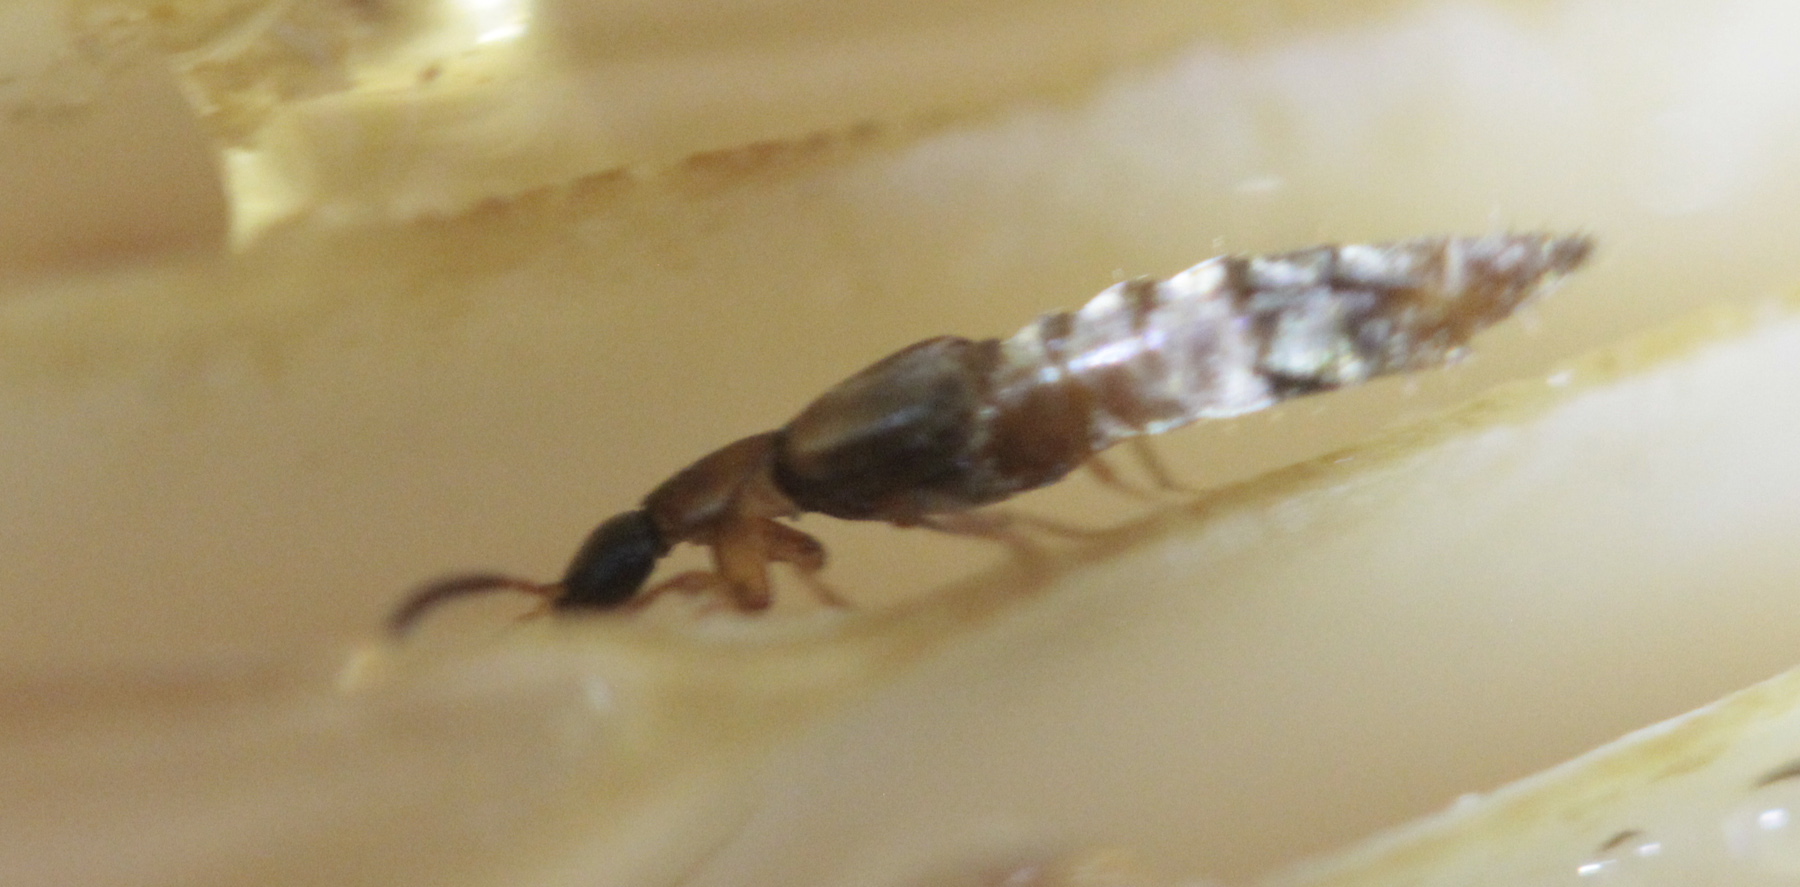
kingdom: Animalia
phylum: Arthropoda
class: Insecta
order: Coleoptera
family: Staphylinidae
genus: Oxypoda
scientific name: Oxypoda alternans
